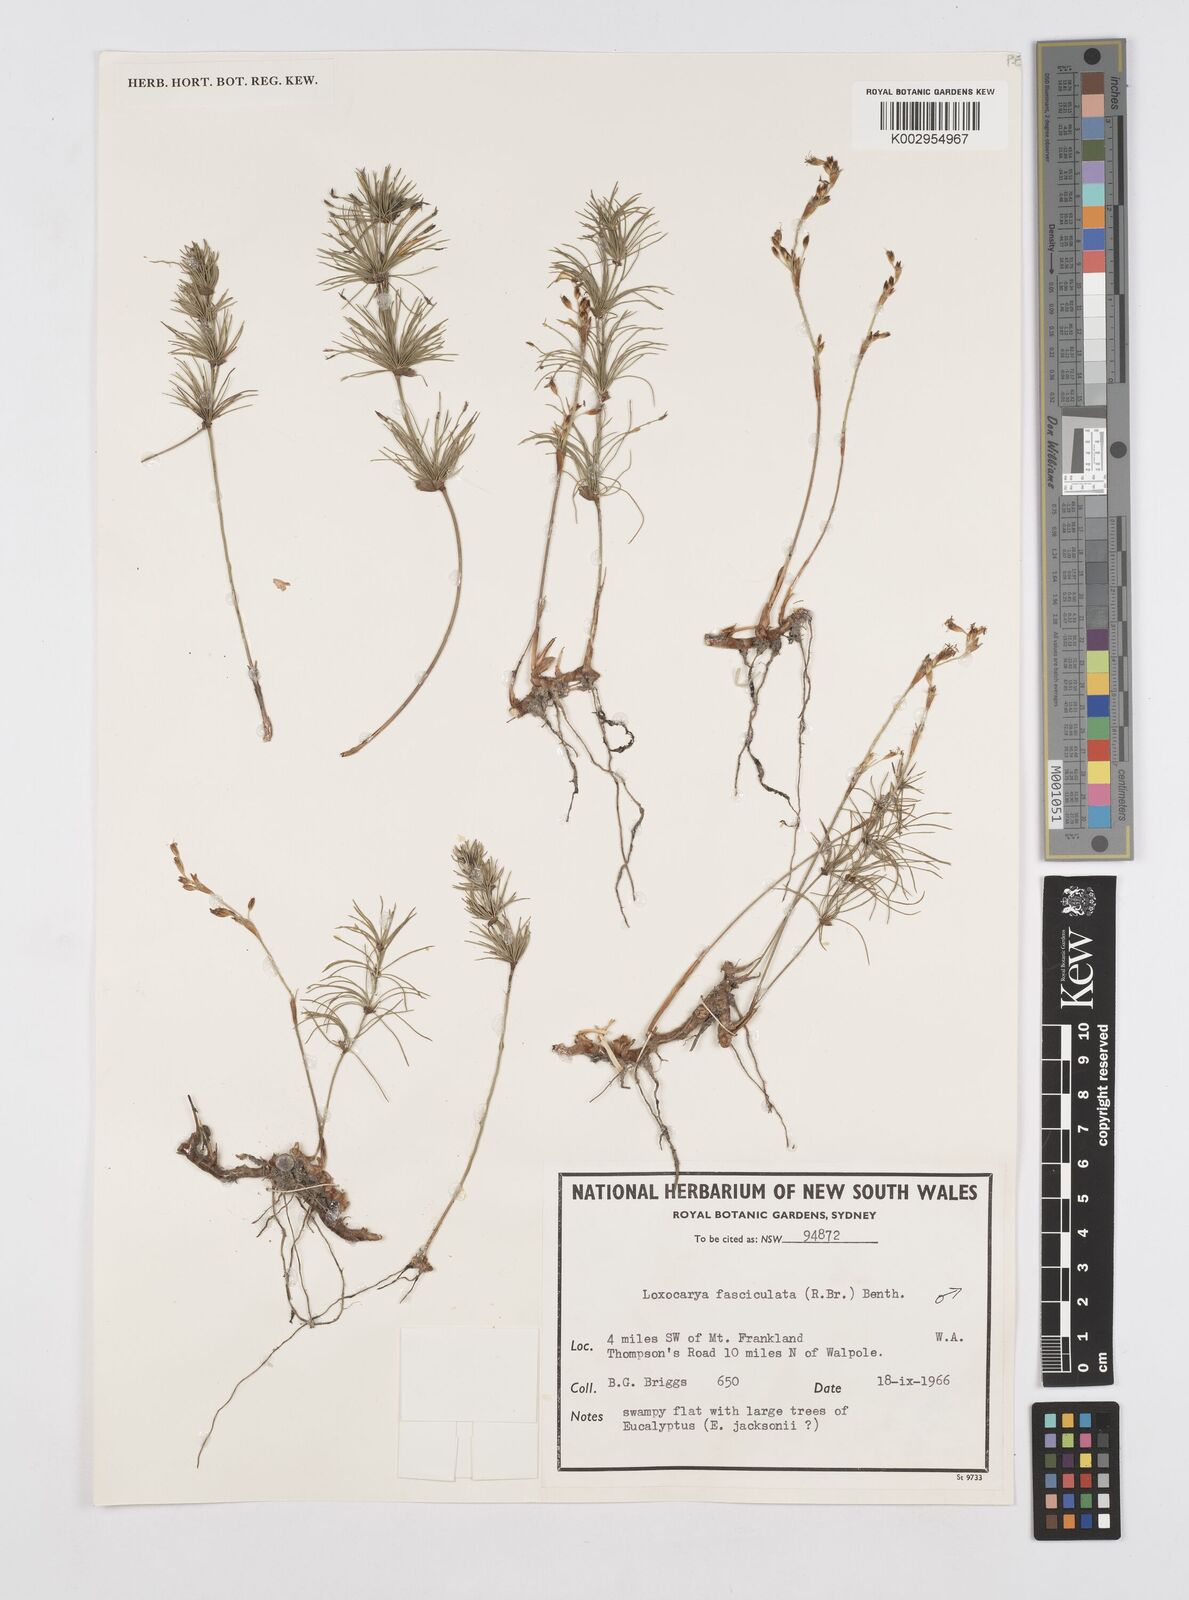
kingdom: Plantae
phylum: Tracheophyta
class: Liliopsida
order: Poales
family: Restionaceae
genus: Desmocladus
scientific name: Desmocladus fasciculatus
